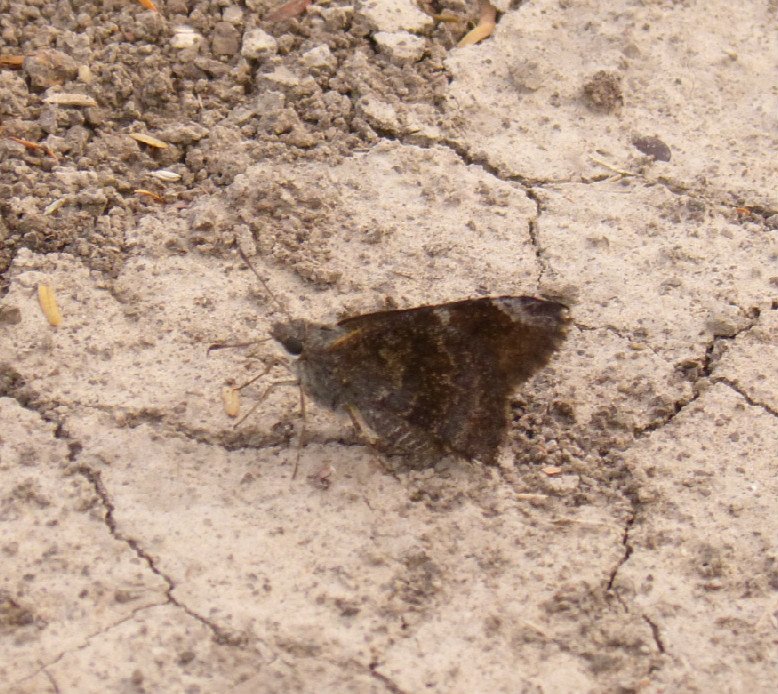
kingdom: Animalia
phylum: Arthropoda
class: Insecta
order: Lepidoptera
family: Hesperiidae
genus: Caicella
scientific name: Caicella calchas
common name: Mimosa Skipper
